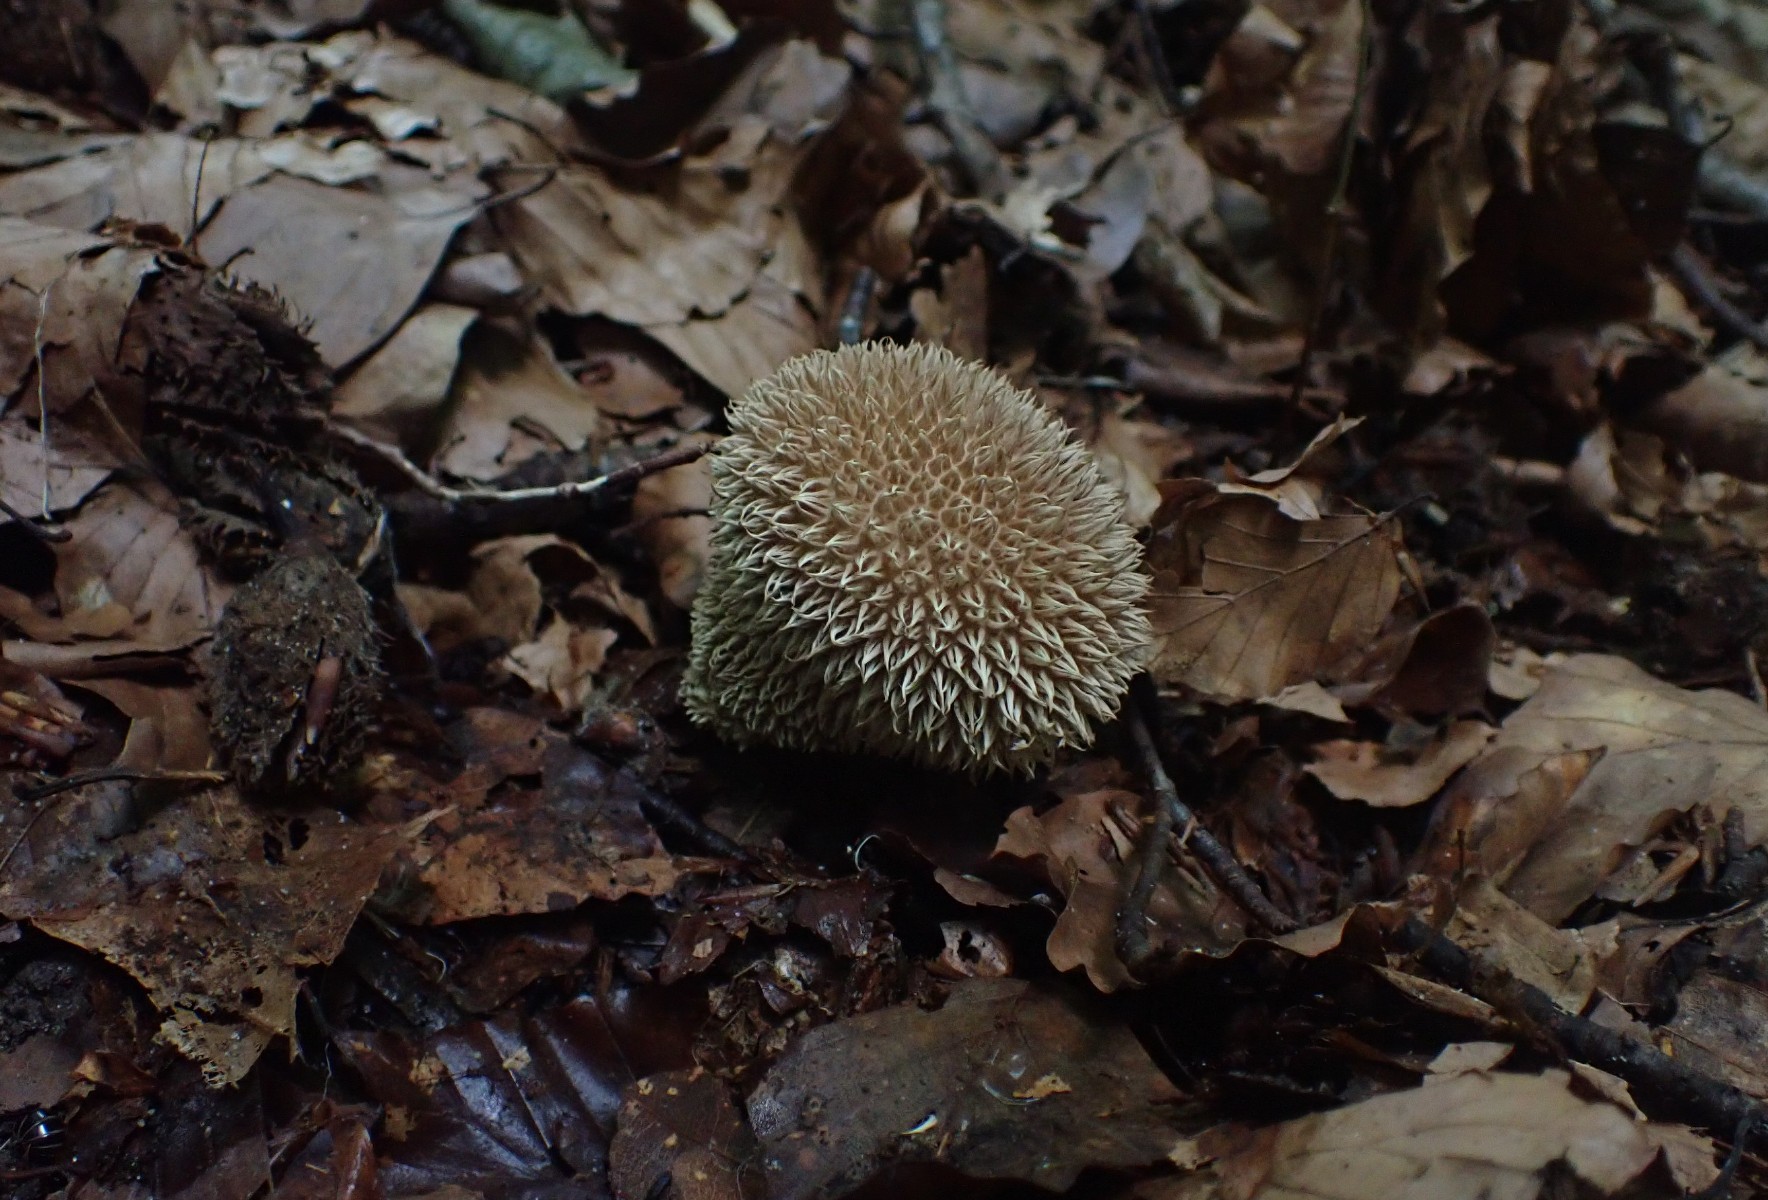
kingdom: Fungi
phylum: Basidiomycota
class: Agaricomycetes
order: Agaricales
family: Lycoperdaceae
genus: Lycoperdon
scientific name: Lycoperdon echinatum
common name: pindsvine-støvbold
